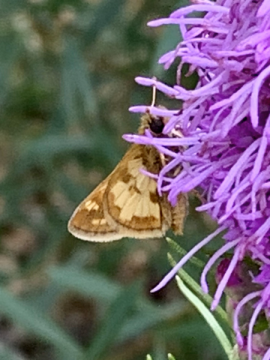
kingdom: Animalia
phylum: Arthropoda
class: Insecta
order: Lepidoptera
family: Hesperiidae
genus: Polites
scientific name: Polites coras
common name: Peck's Skipper
